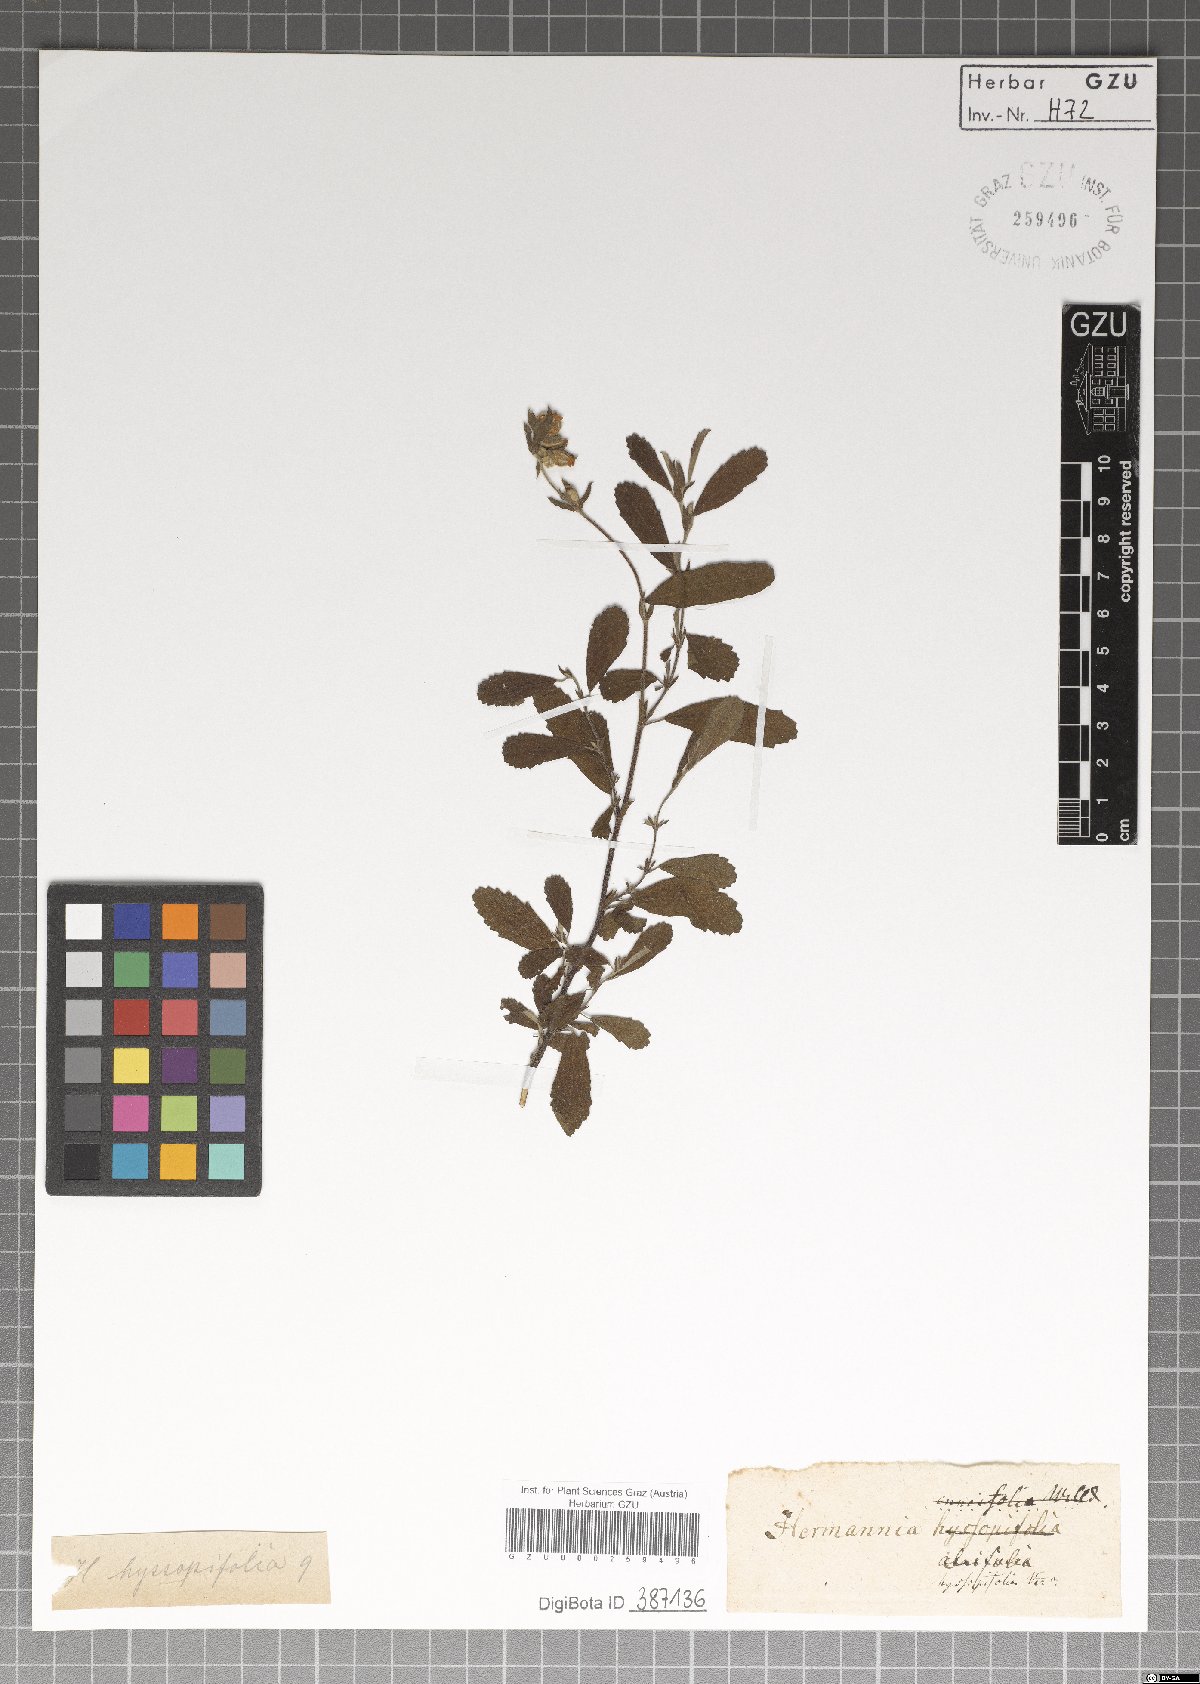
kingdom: Plantae
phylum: Tracheophyta
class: Magnoliopsida
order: Malvales
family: Malvaceae
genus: Hermannia
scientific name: Hermannia alnifolia
